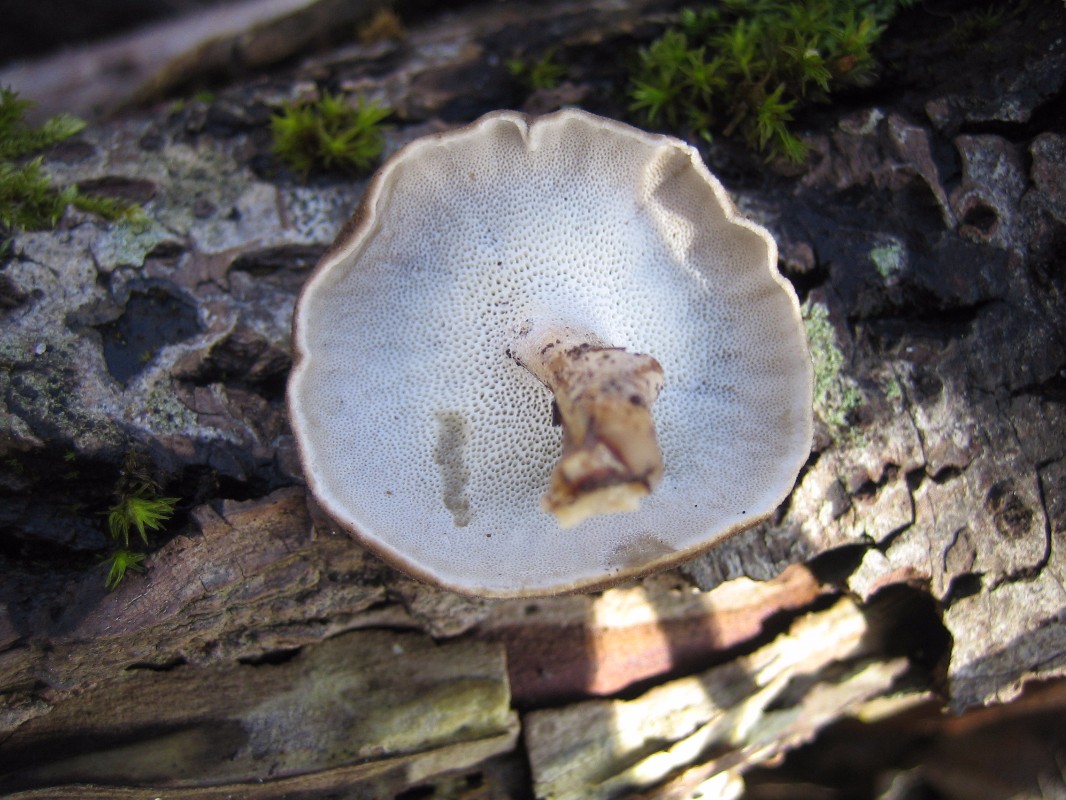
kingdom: Fungi
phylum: Basidiomycota
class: Agaricomycetes
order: Polyporales
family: Polyporaceae
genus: Lentinus
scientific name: Lentinus brumalis
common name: vinter-stilkporesvamp
